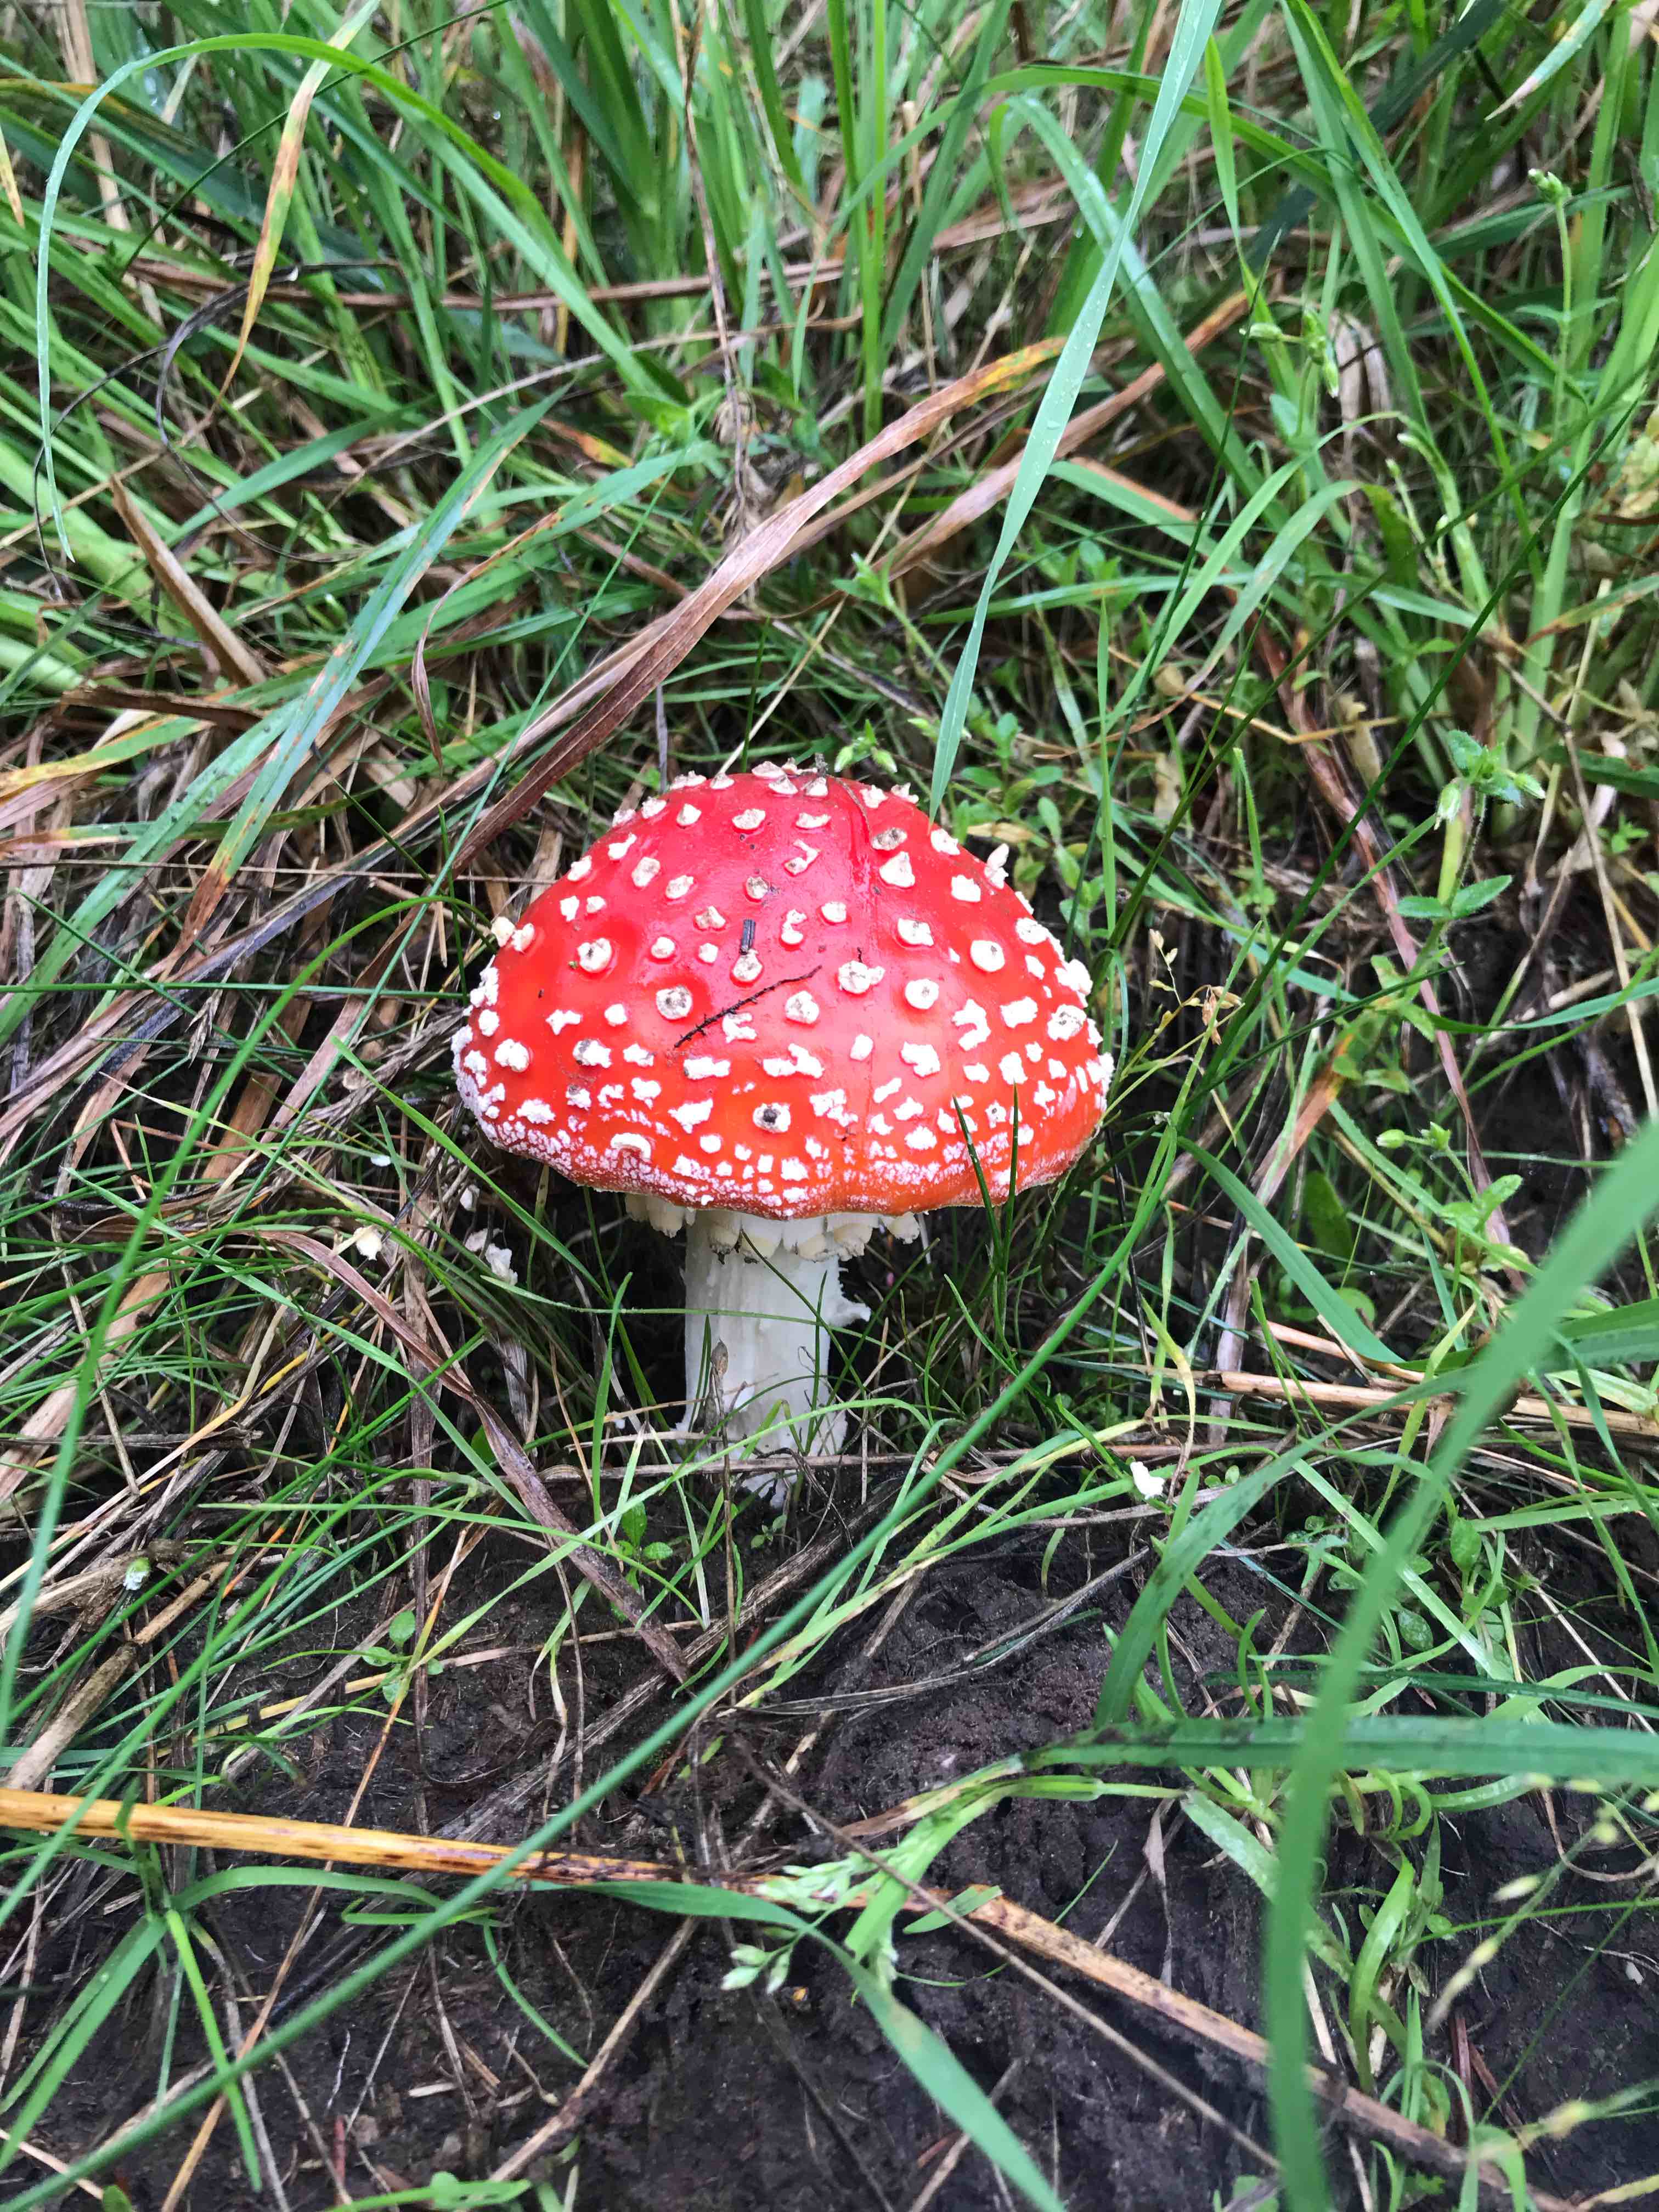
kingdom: Fungi
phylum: Basidiomycota
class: Agaricomycetes
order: Agaricales
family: Amanitaceae
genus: Amanita
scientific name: Amanita muscaria
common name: rød fluesvamp
